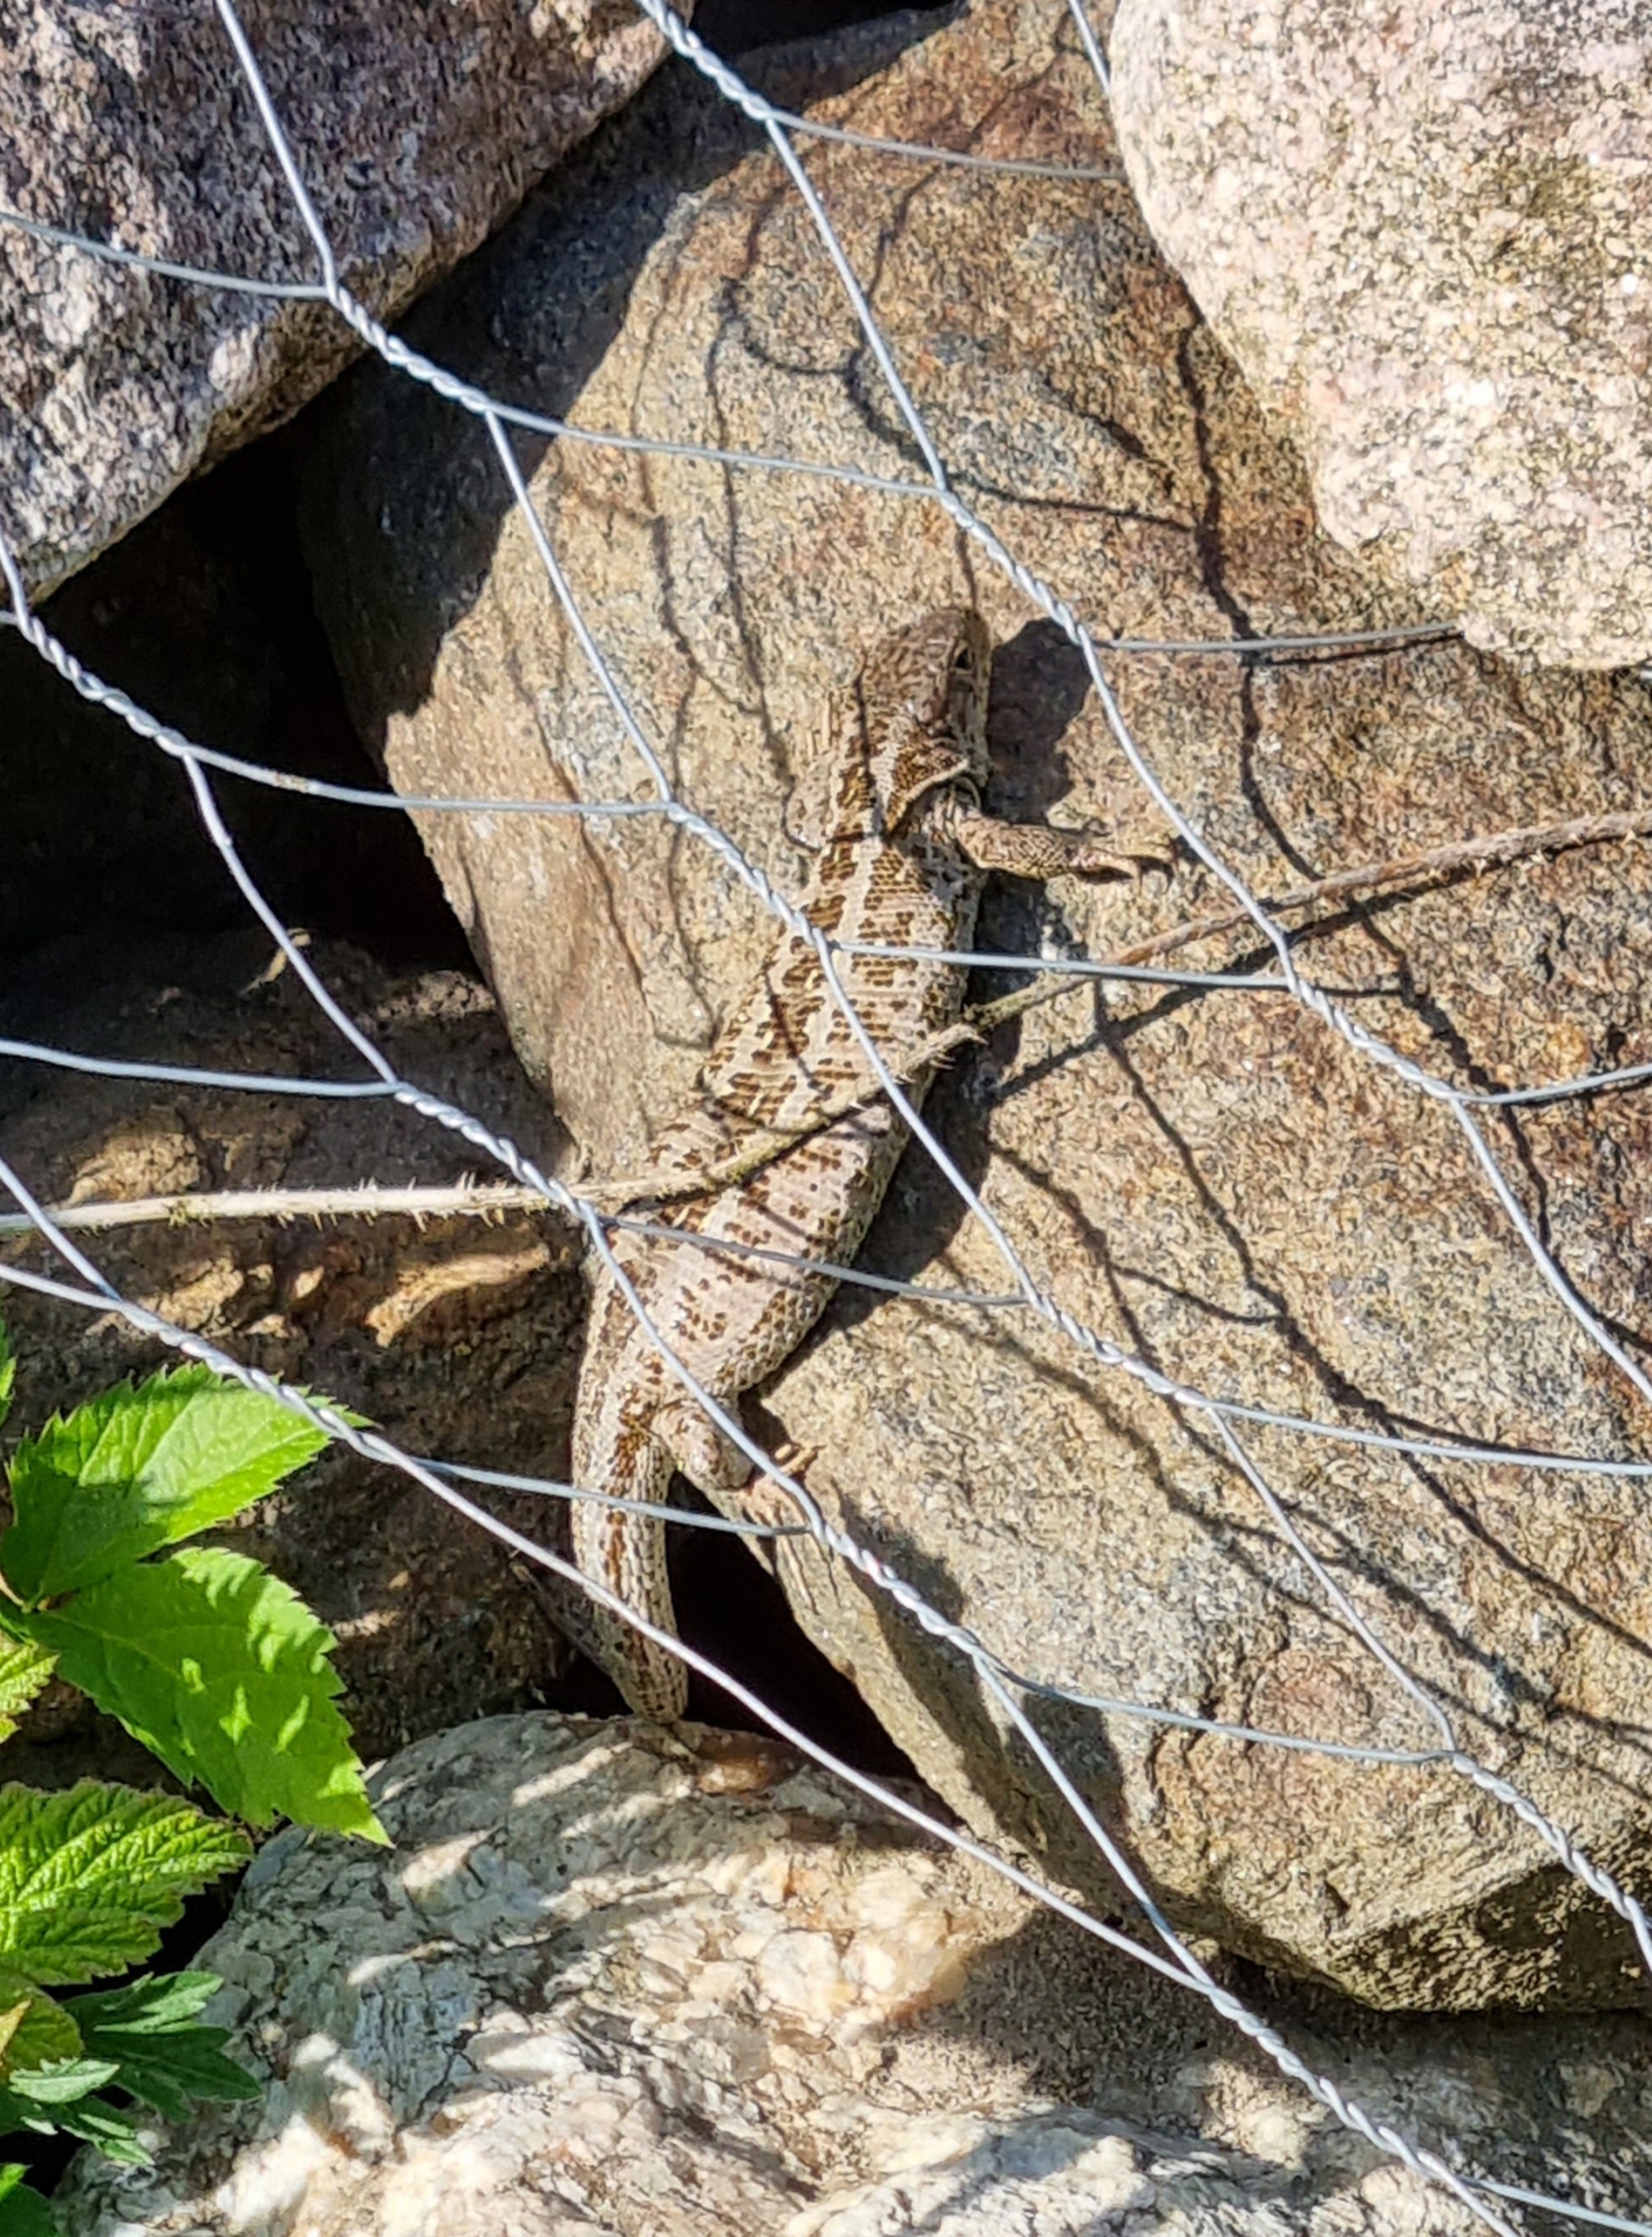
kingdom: Animalia
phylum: Chordata
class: Squamata
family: Lacertidae
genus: Lacerta
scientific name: Lacerta agilis
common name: Markfirben
